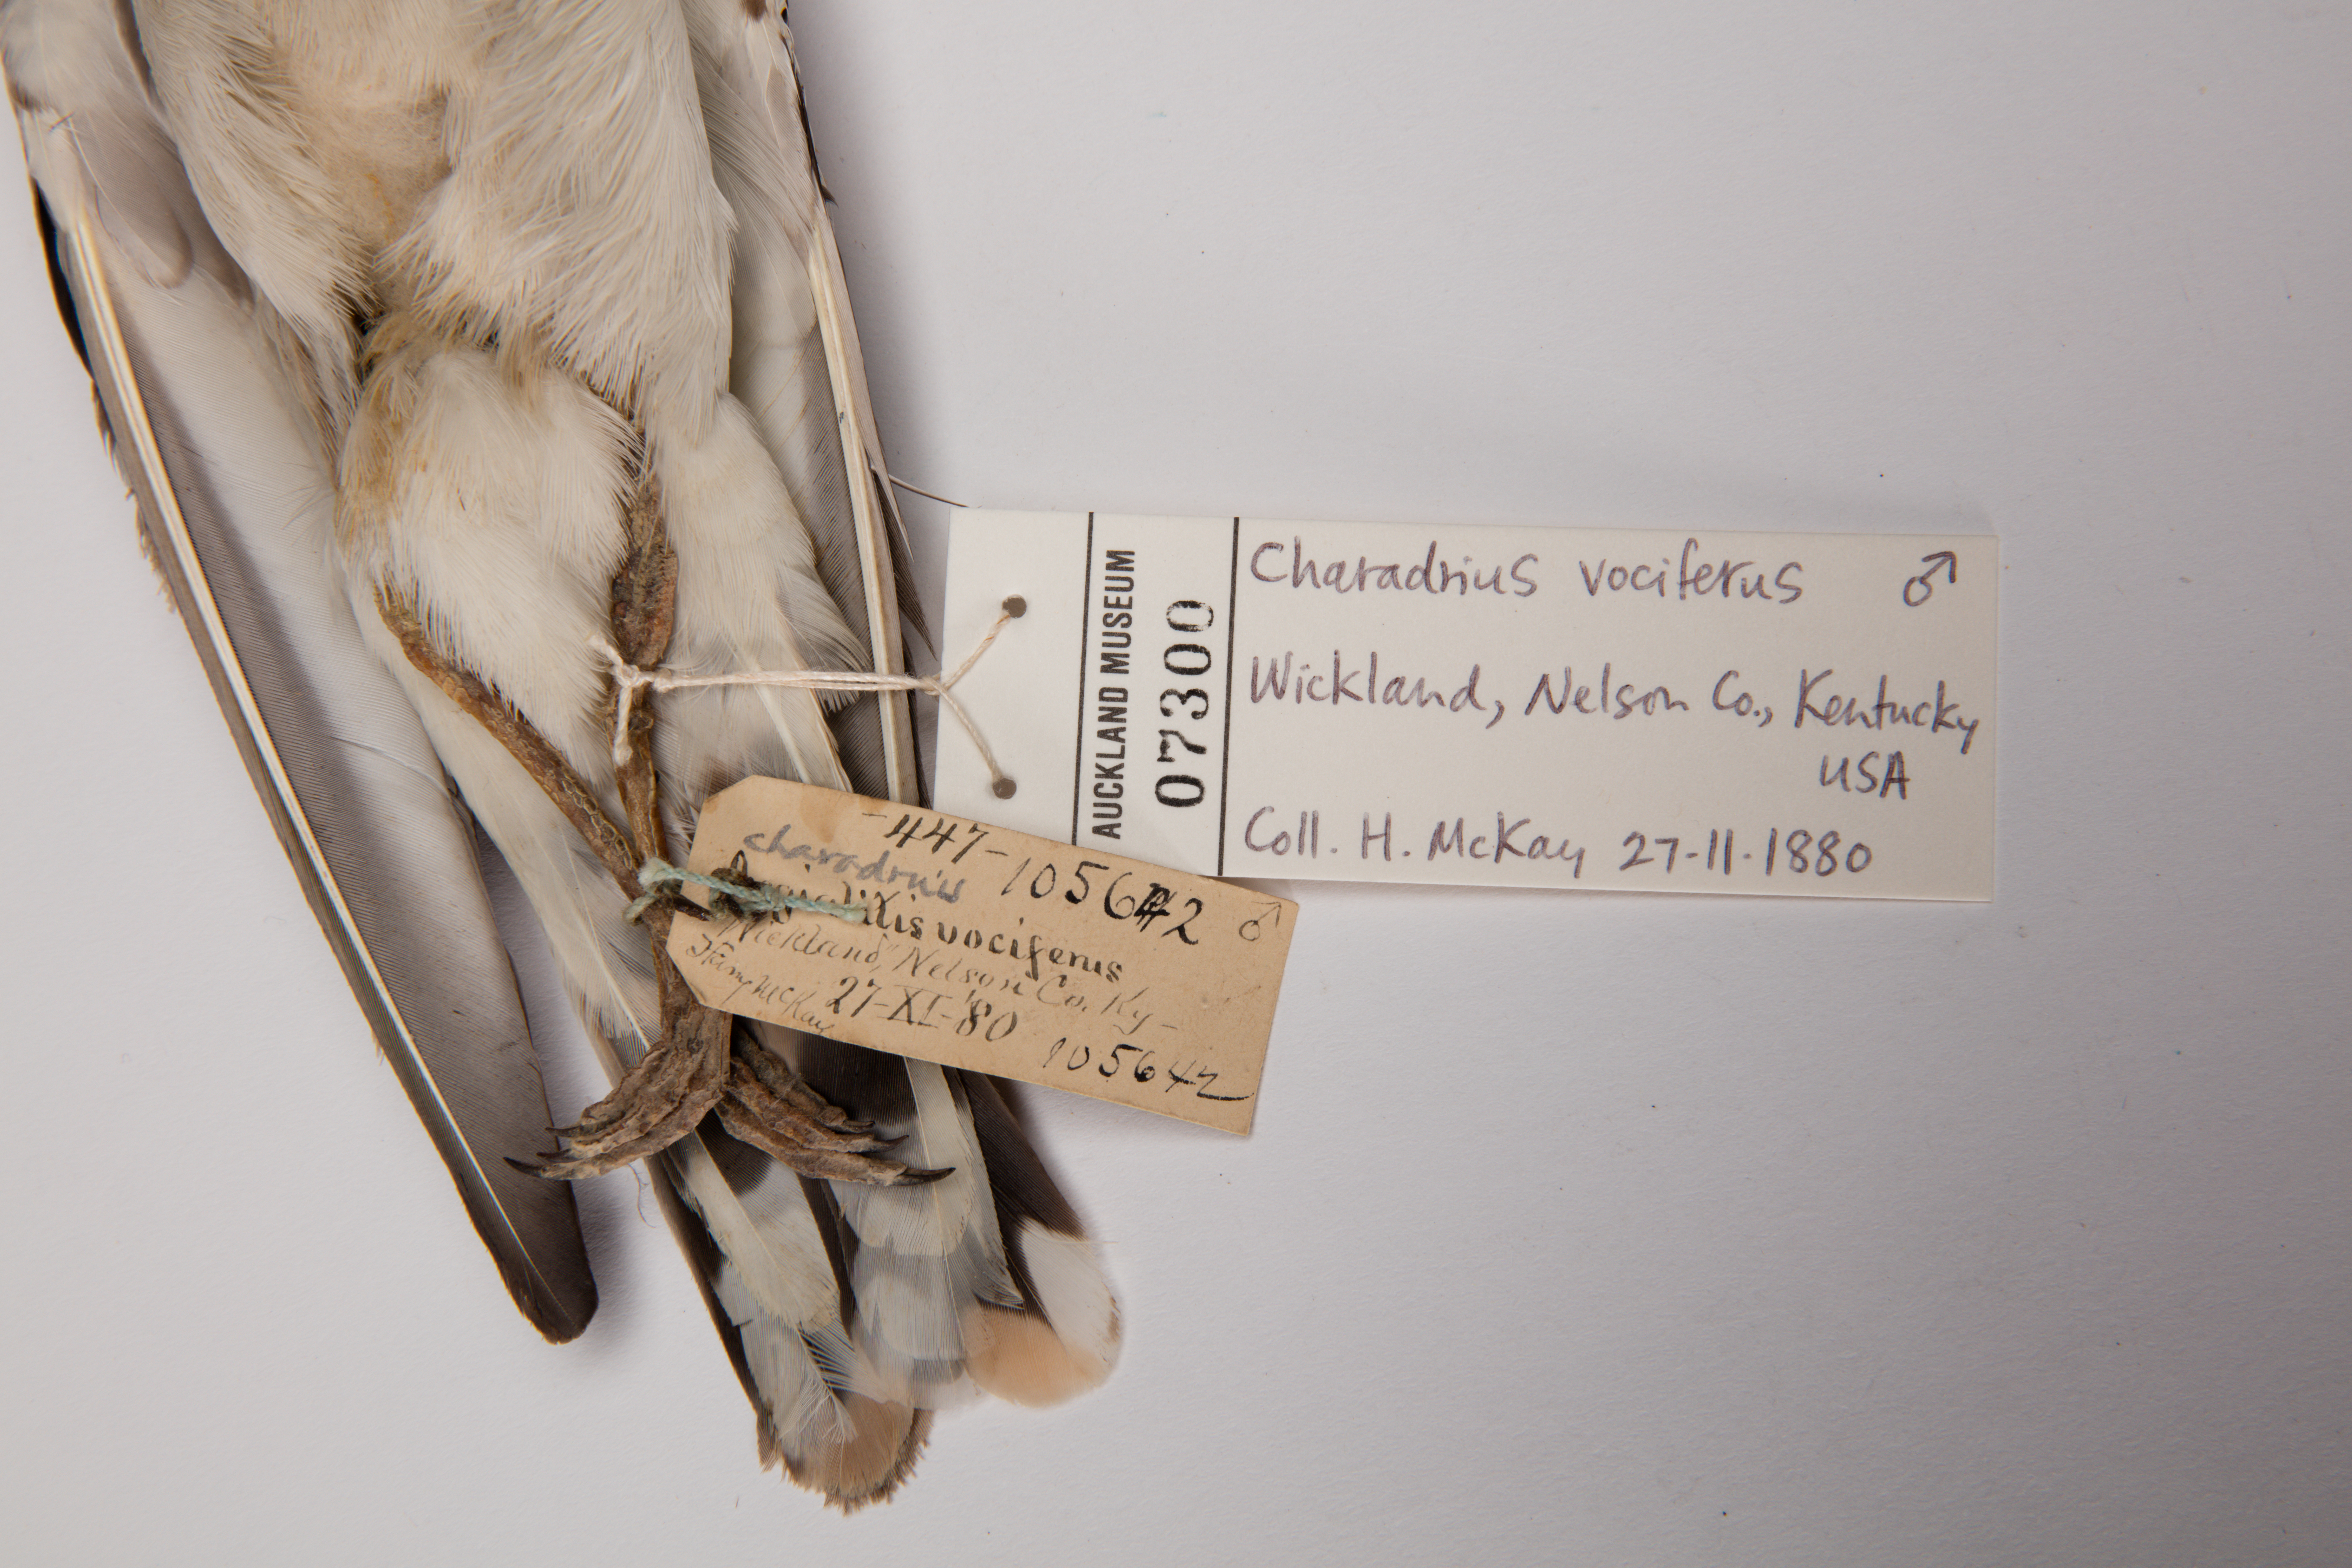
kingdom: Animalia
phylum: Chordata
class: Aves
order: Charadriiformes
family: Charadriidae
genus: Charadrius
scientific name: Charadrius vociferus
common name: Killdeer
